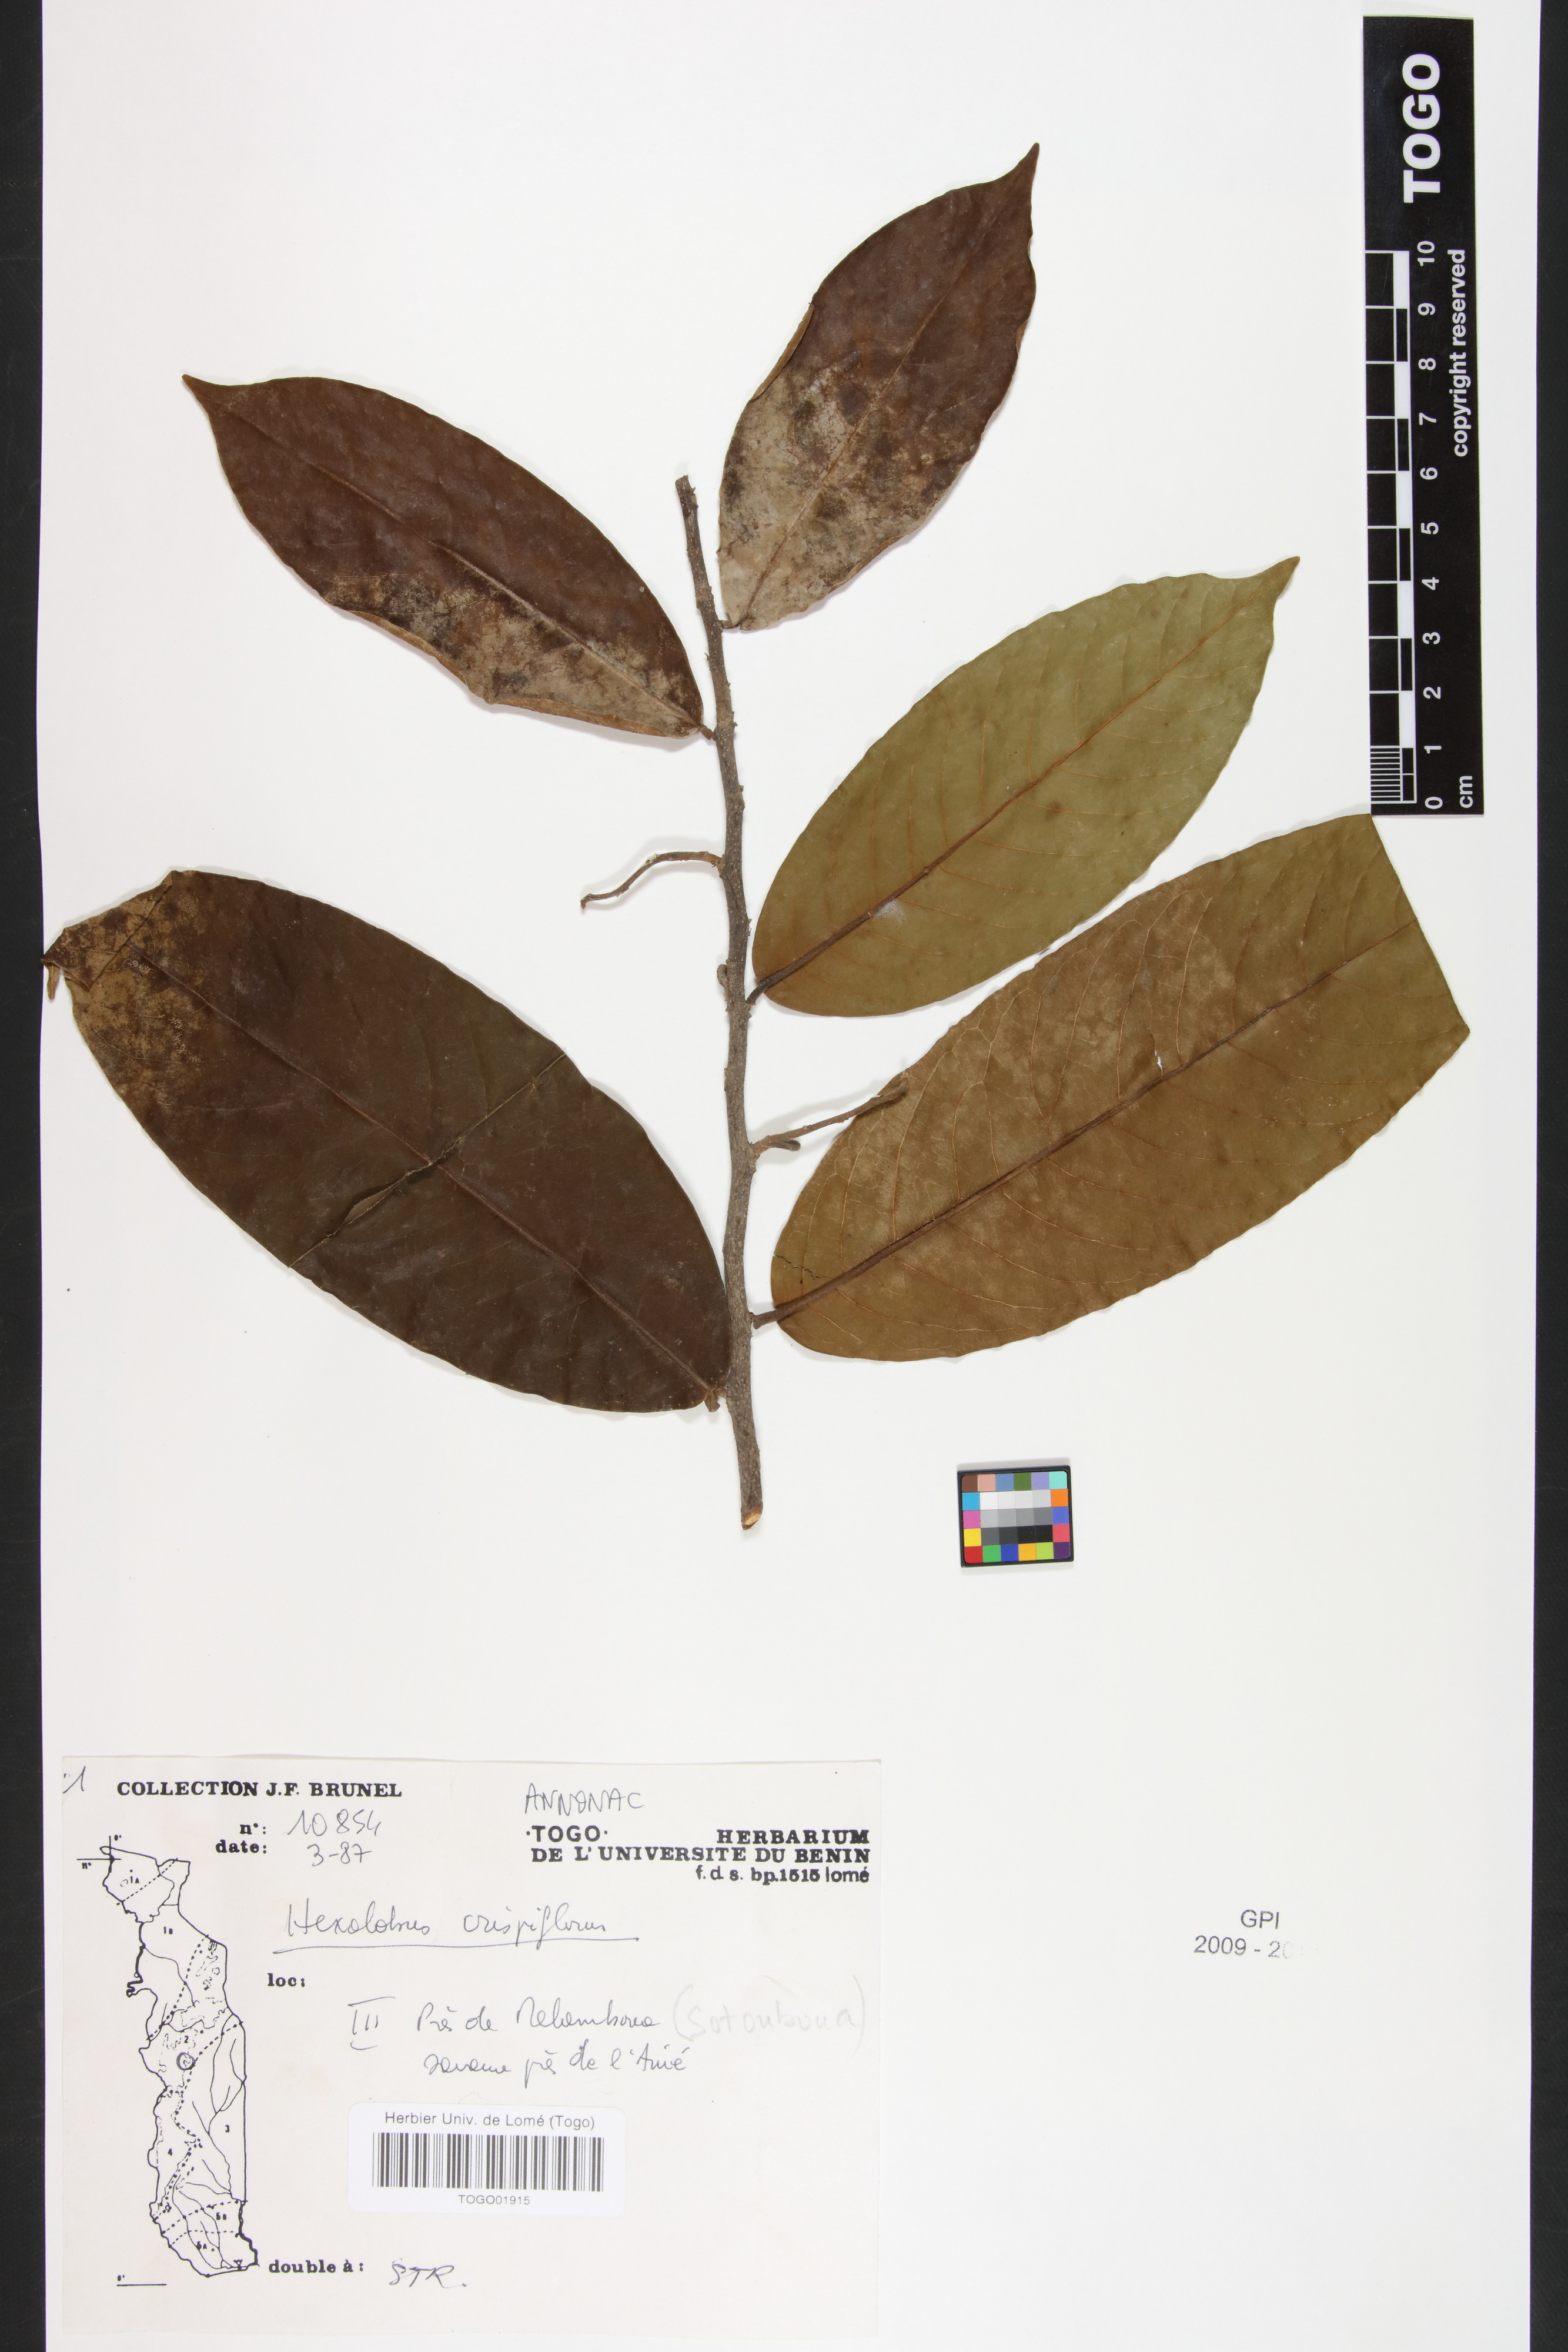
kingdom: Plantae
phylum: Tracheophyta
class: Magnoliopsida
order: Magnoliales
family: Annonaceae
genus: Hexalobus
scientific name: Hexalobus crispiflorus
